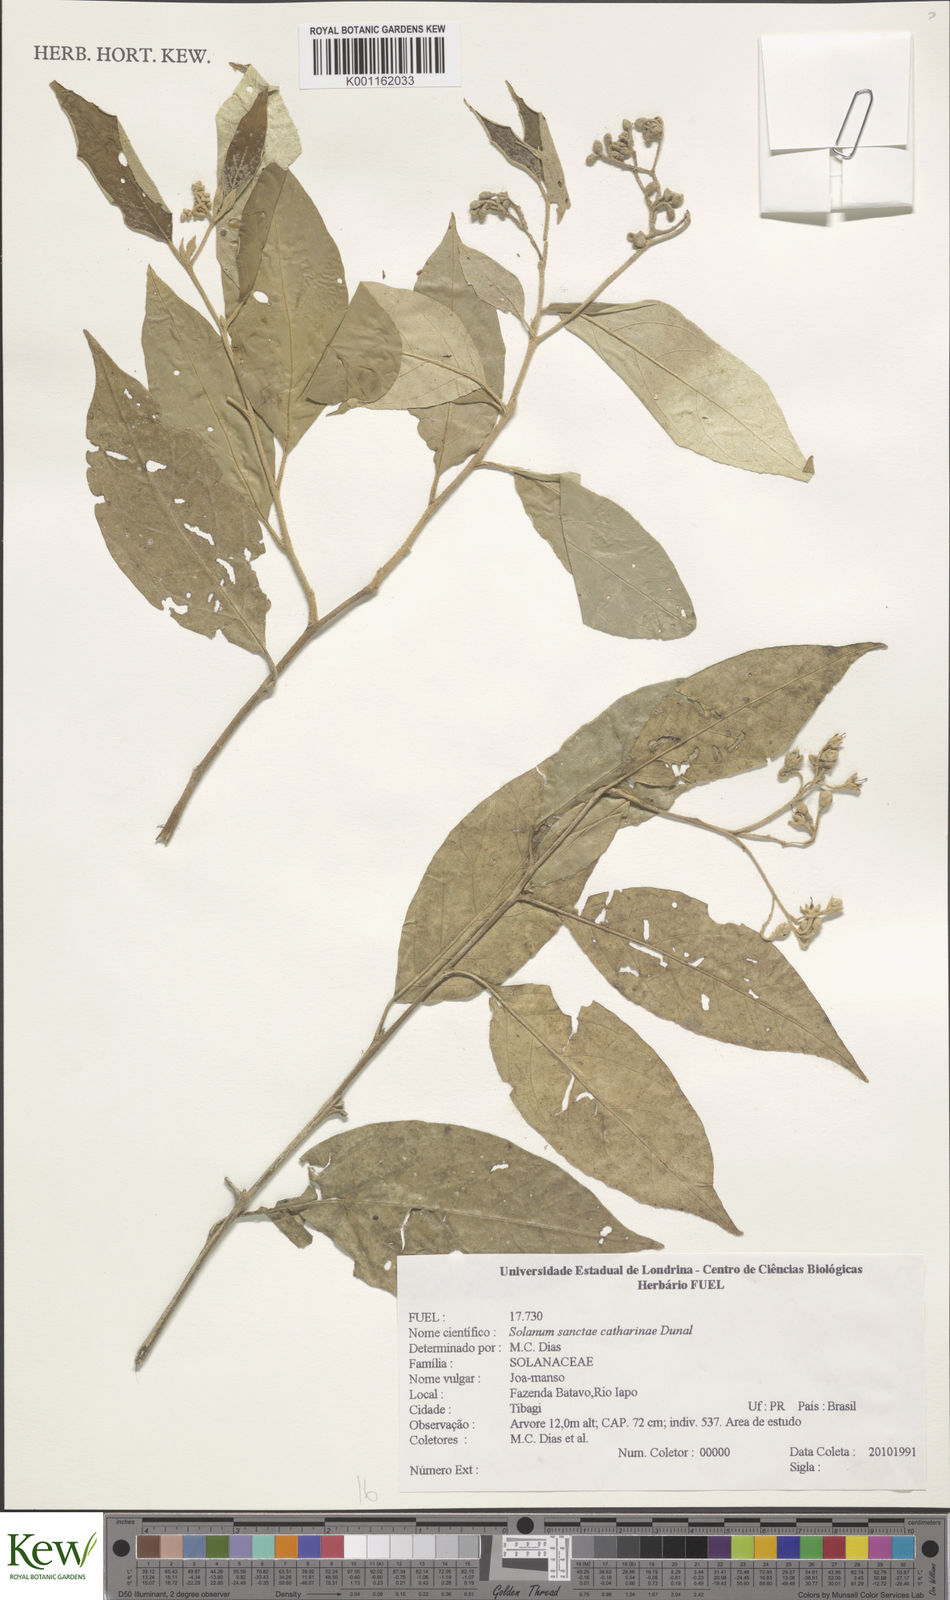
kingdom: Plantae
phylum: Tracheophyta
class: Magnoliopsida
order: Solanales
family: Solanaceae
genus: Solanum
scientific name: Solanum sanctae-catharinae
